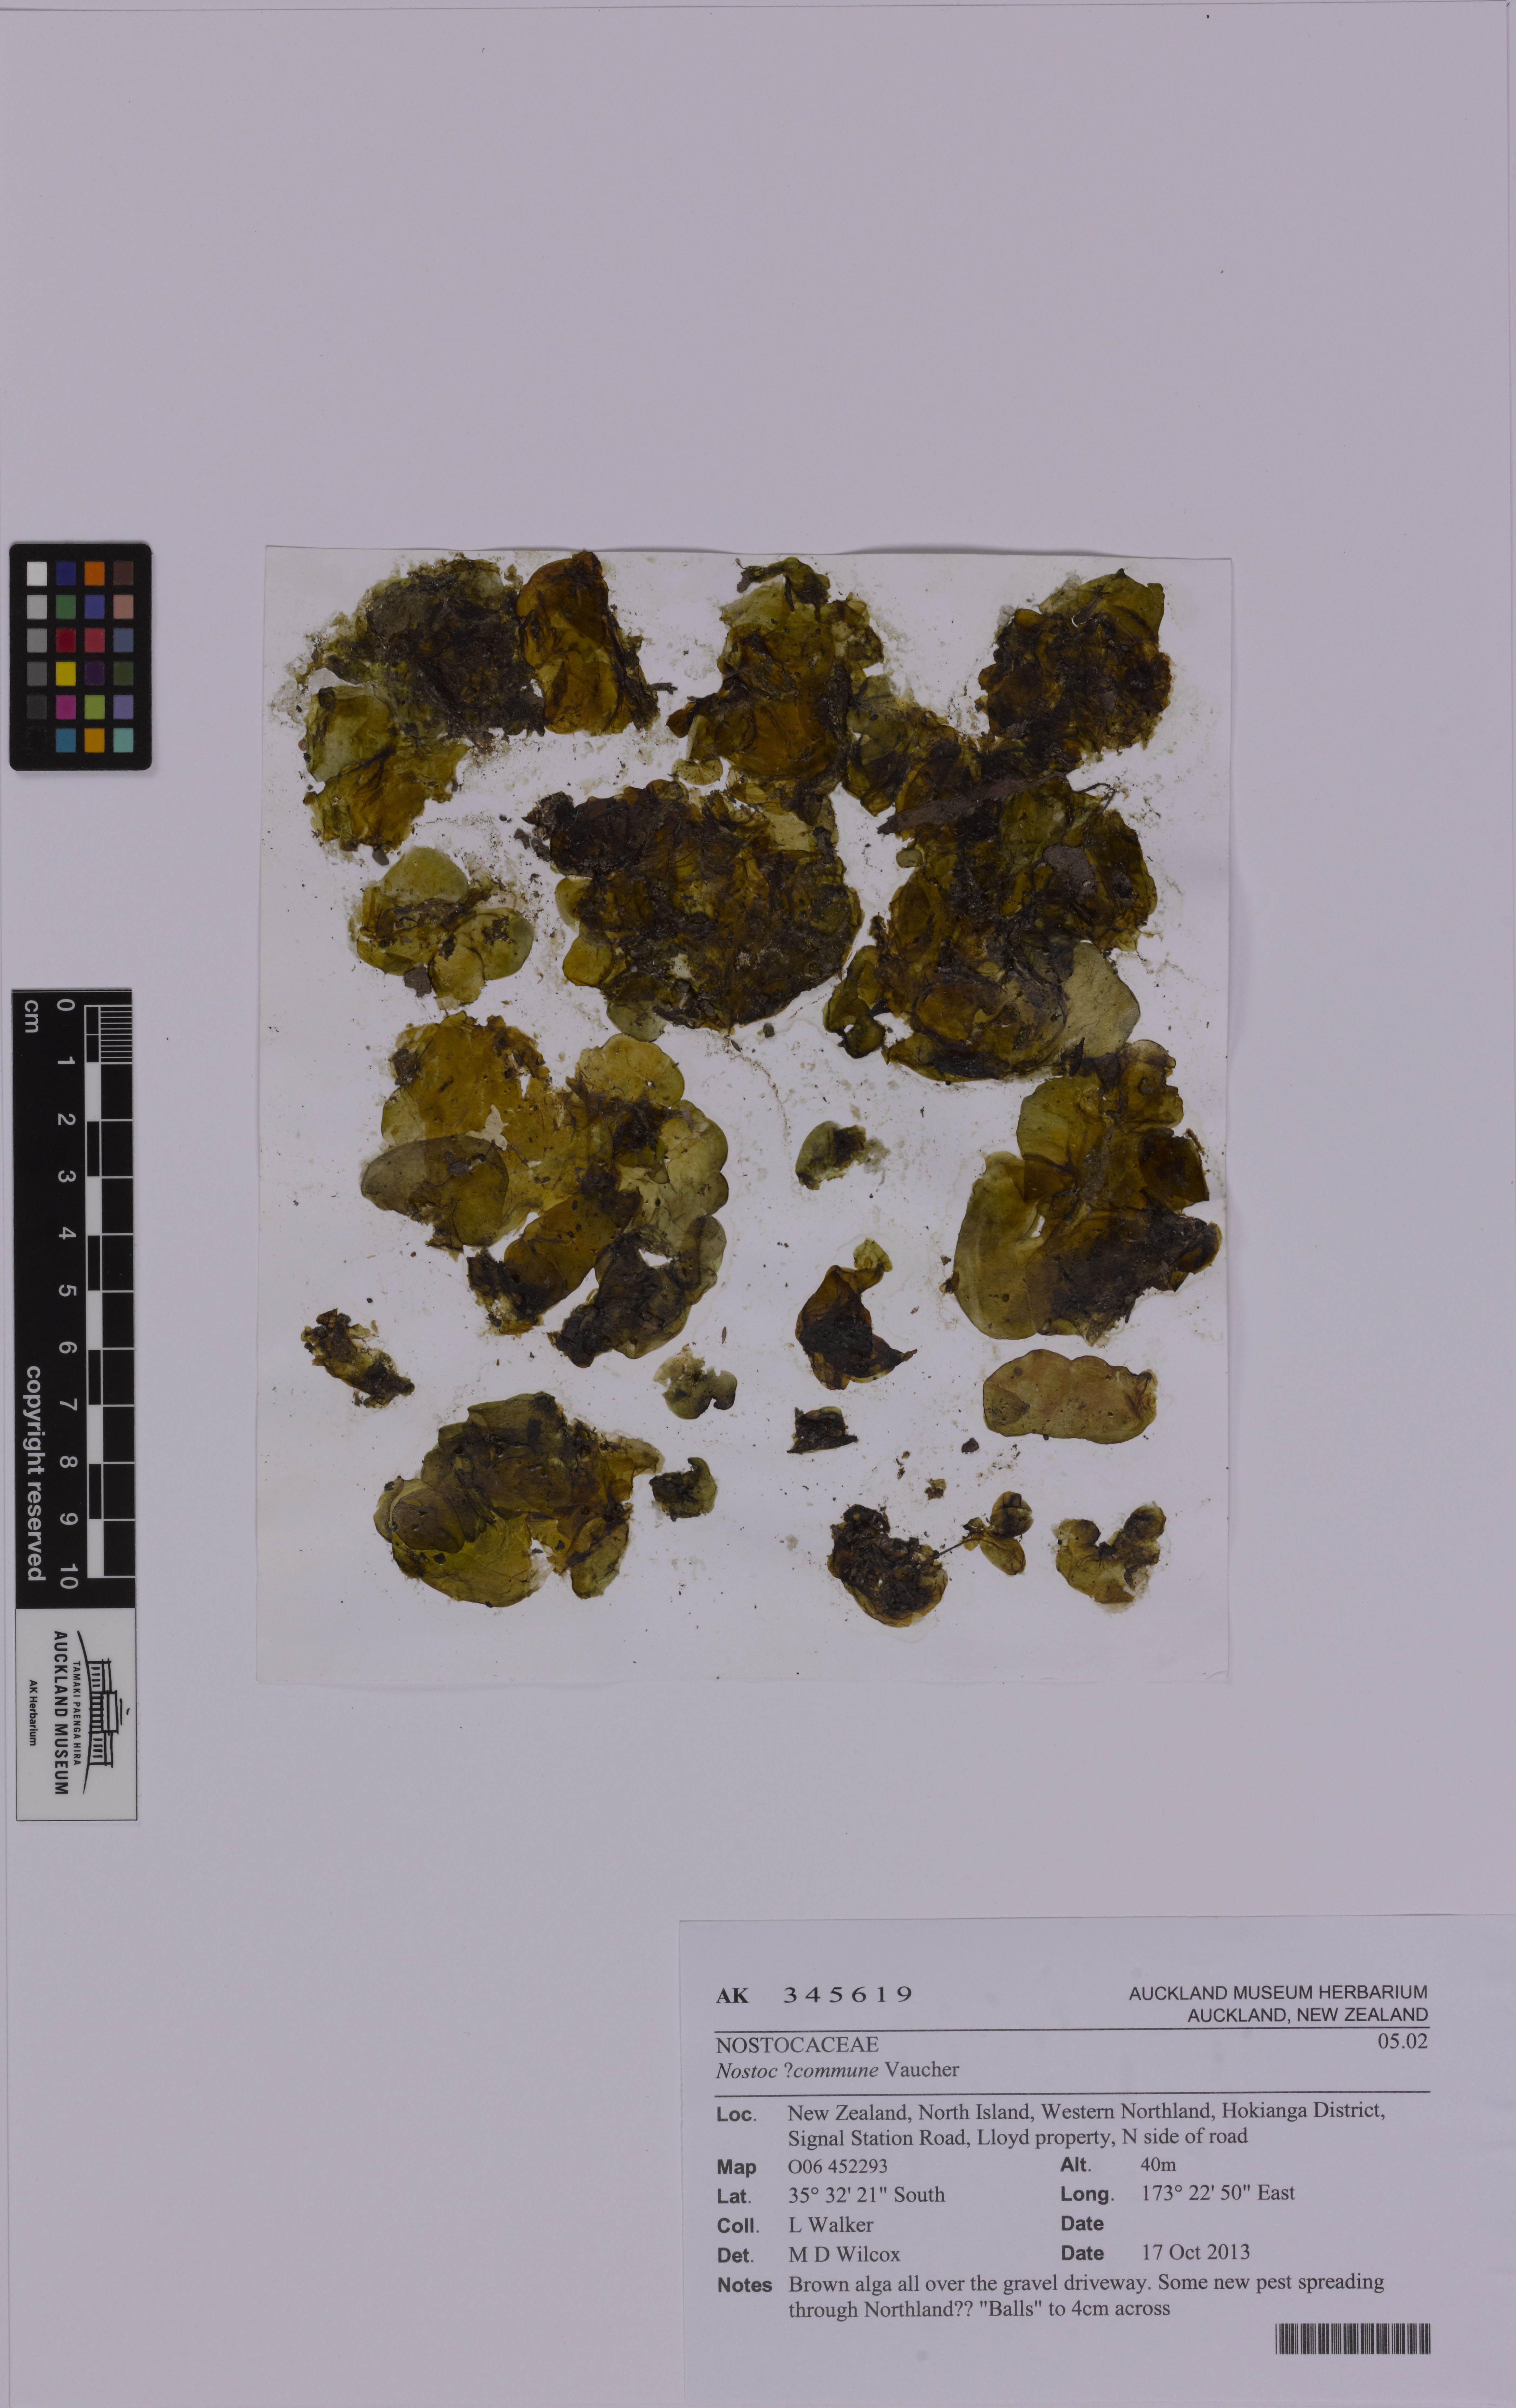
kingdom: Bacteria
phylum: Cyanobacteria
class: Cyanobacteriia
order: Cyanobacteriales
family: Nostocaceae
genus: Nostoc
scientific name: Nostoc commune
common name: Star jelly
